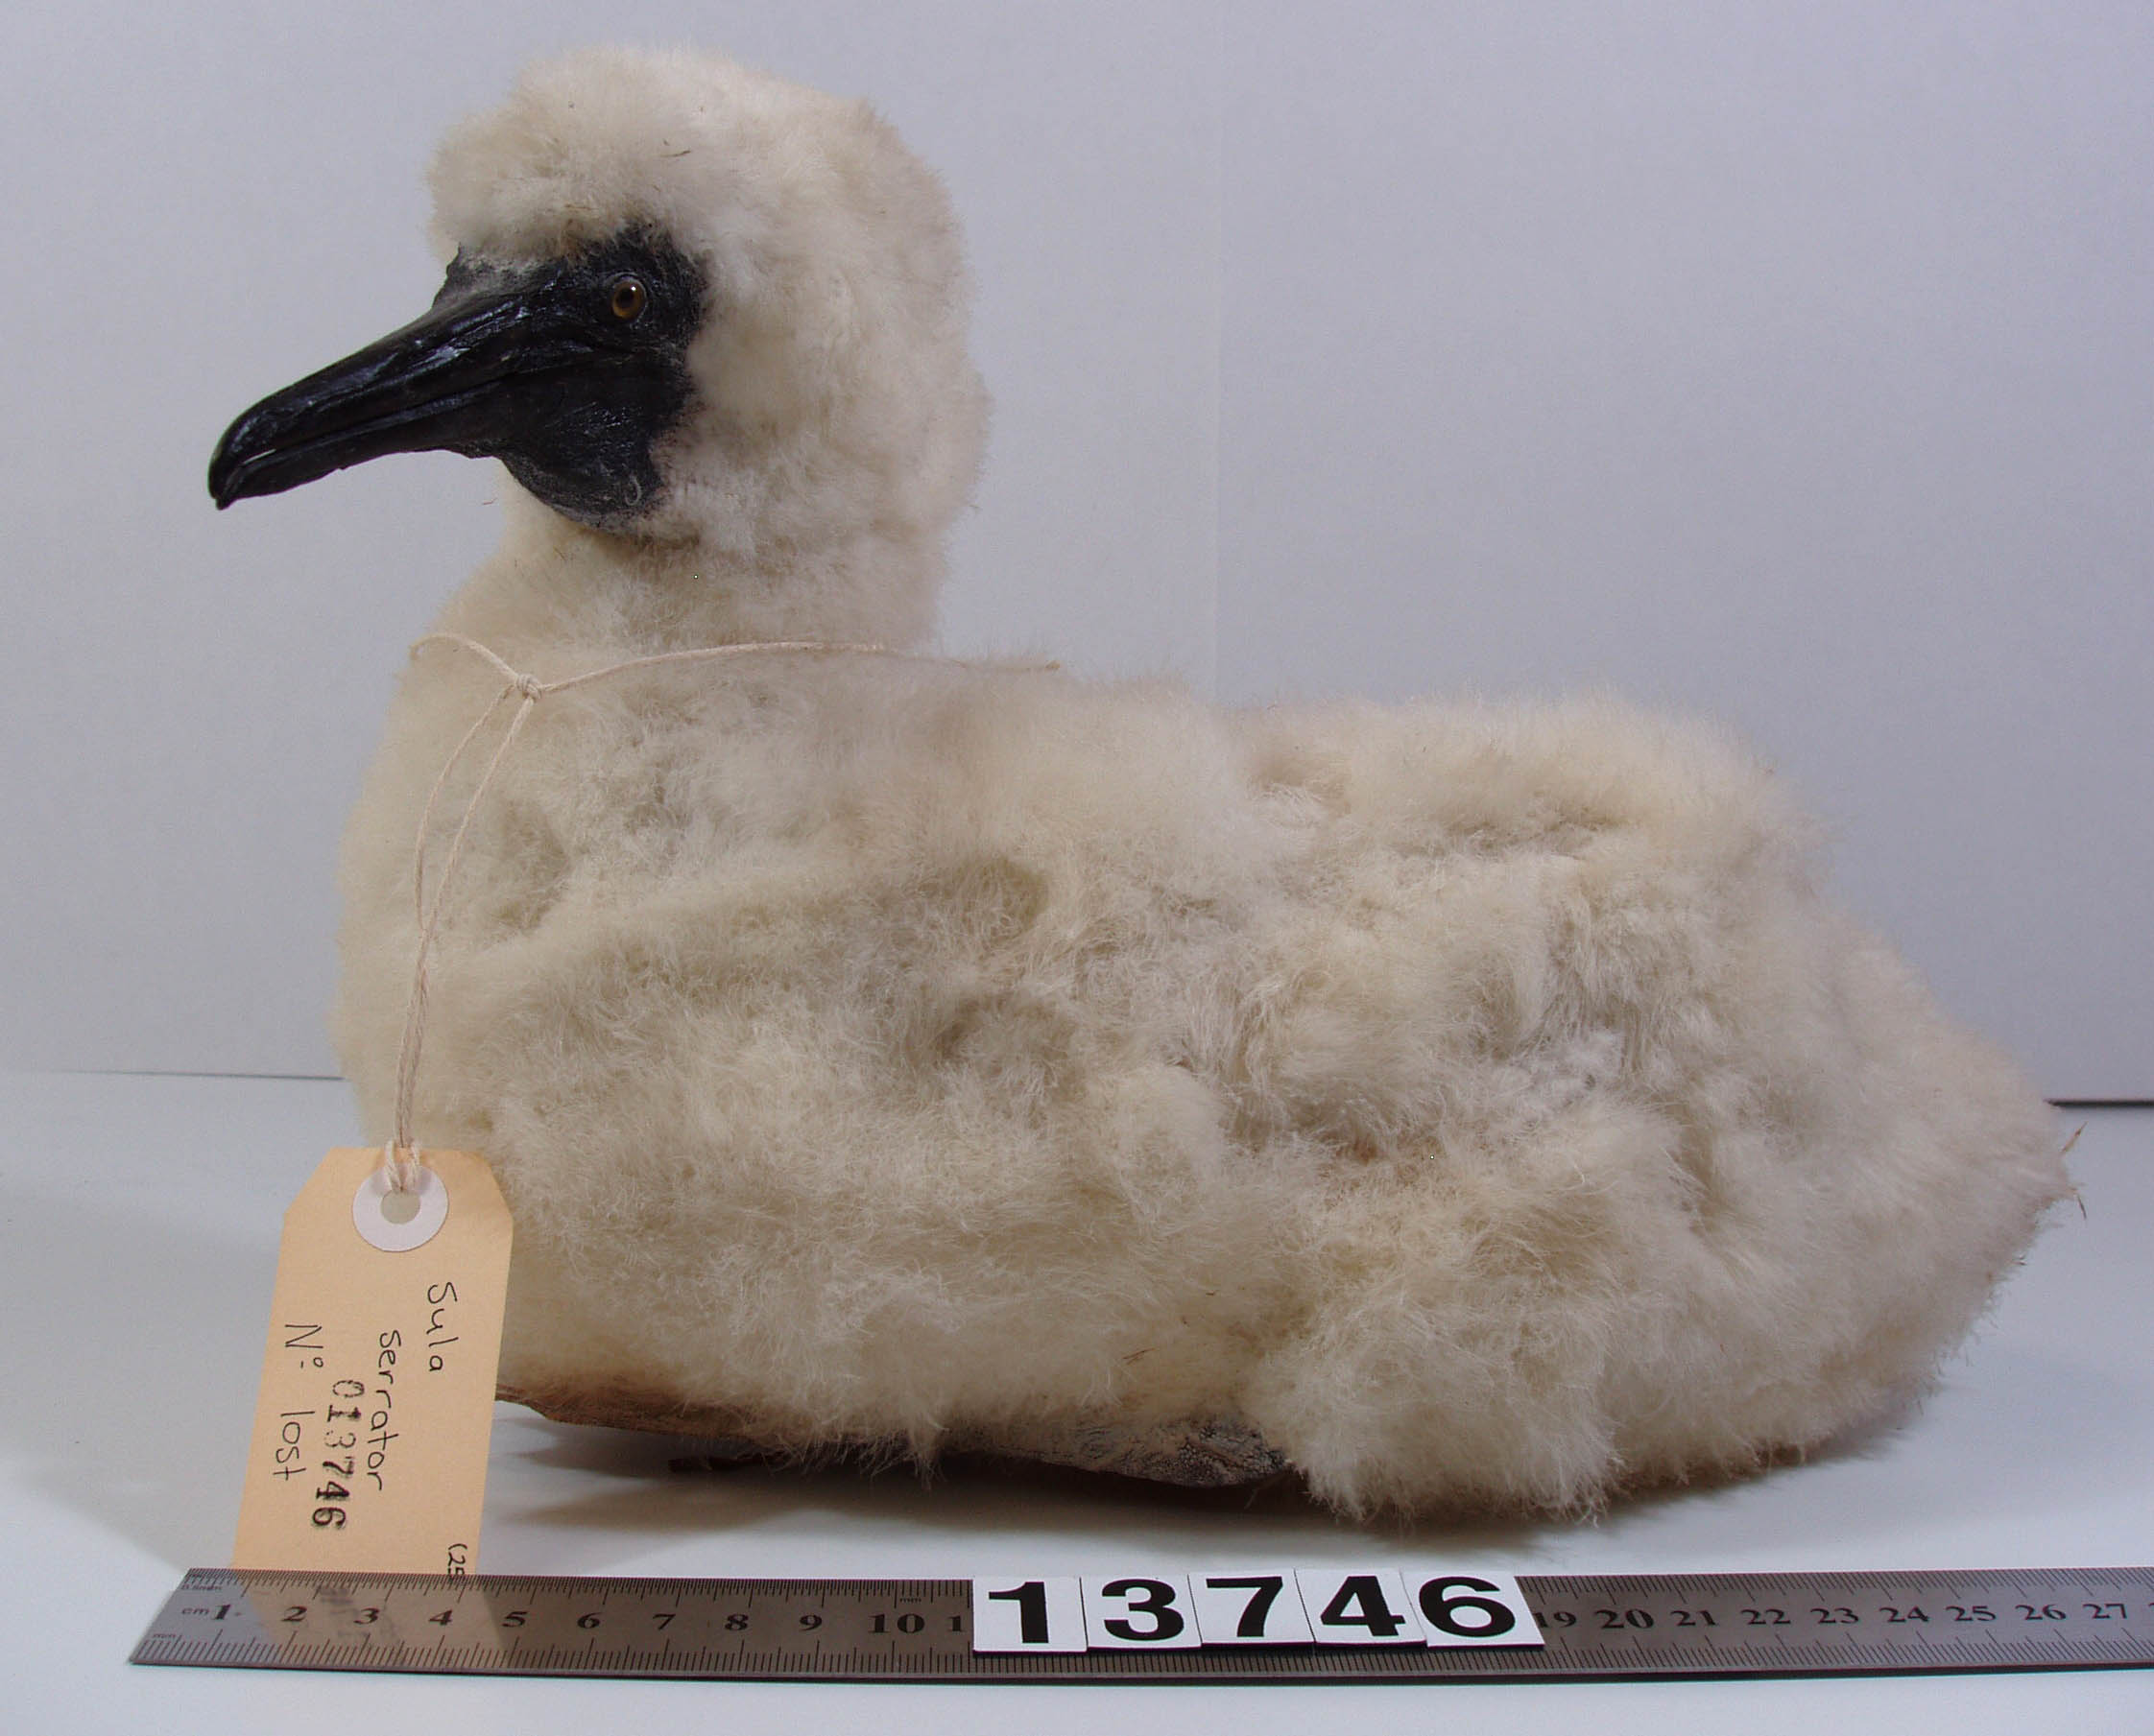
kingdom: Animalia
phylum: Chordata
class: Aves
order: Suliformes
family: Sulidae
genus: Morus
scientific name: Morus serrator
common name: Australasian gannet
